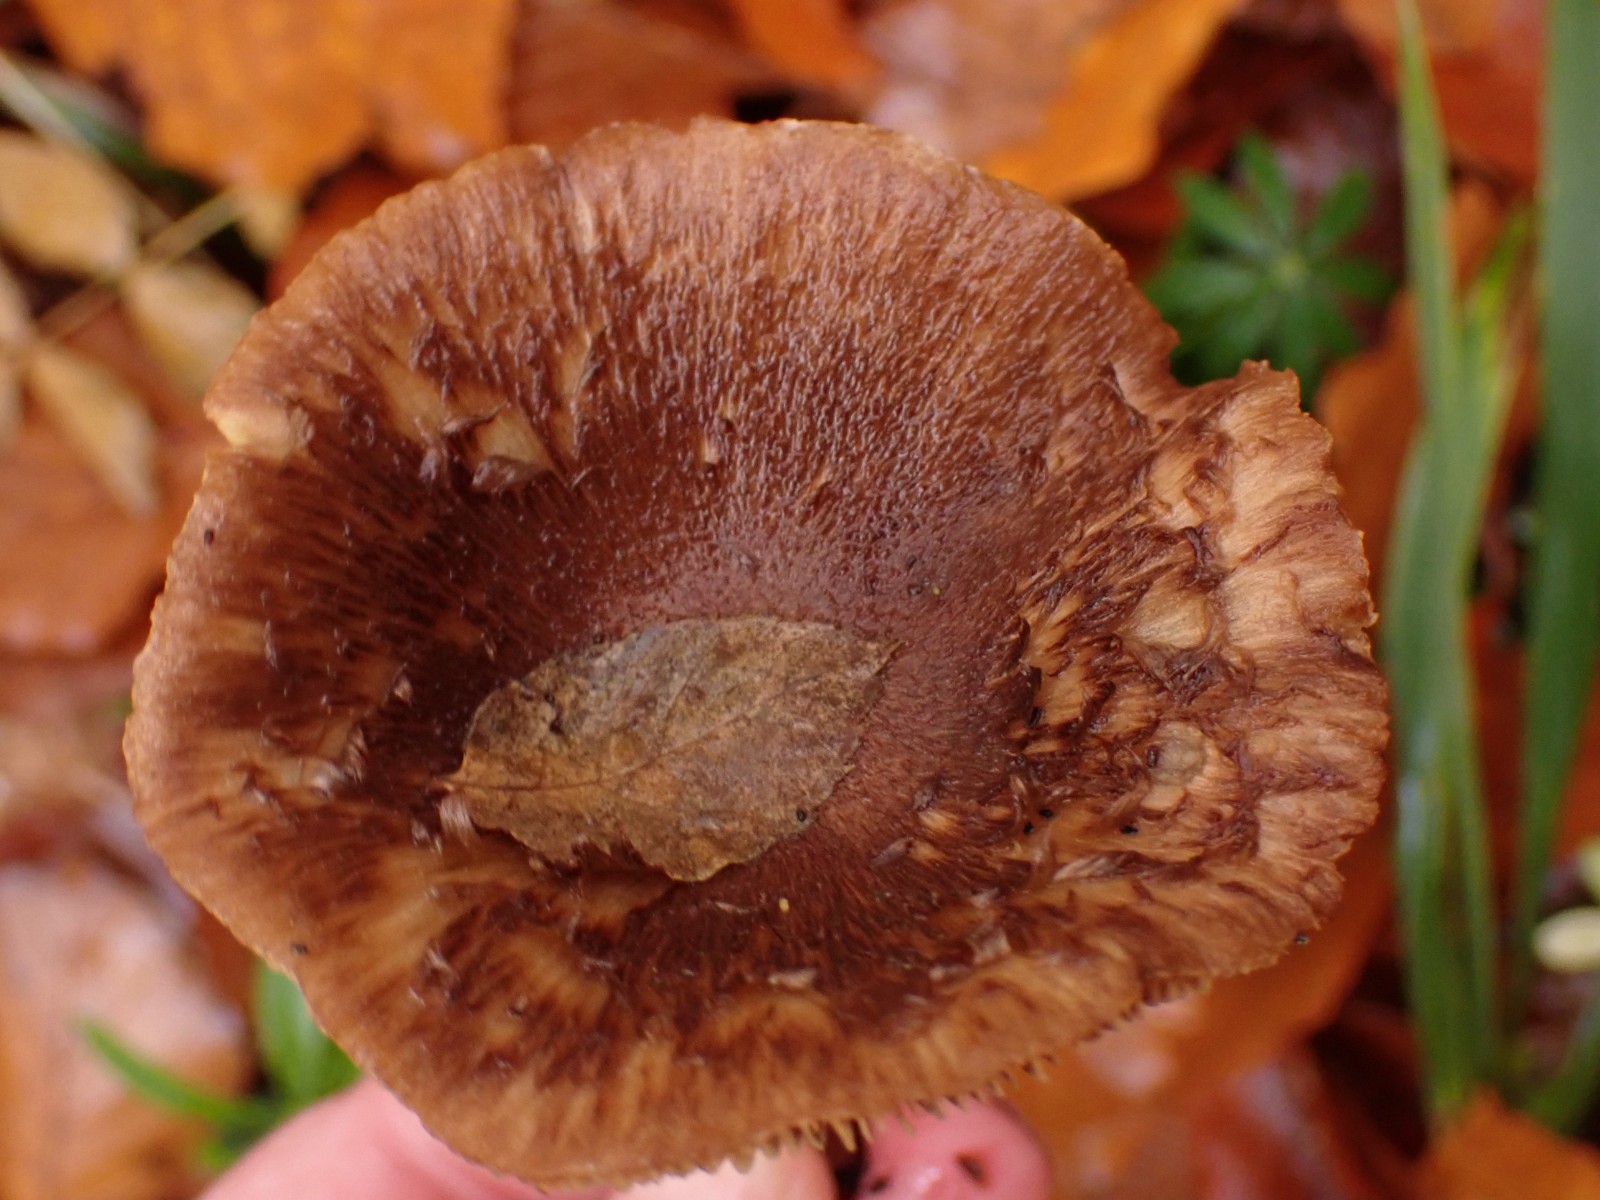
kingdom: Fungi
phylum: Basidiomycota
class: Agaricomycetes
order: Agaricales
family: Inocybaceae
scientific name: Inocybaceae
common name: trævlhatfamilien
